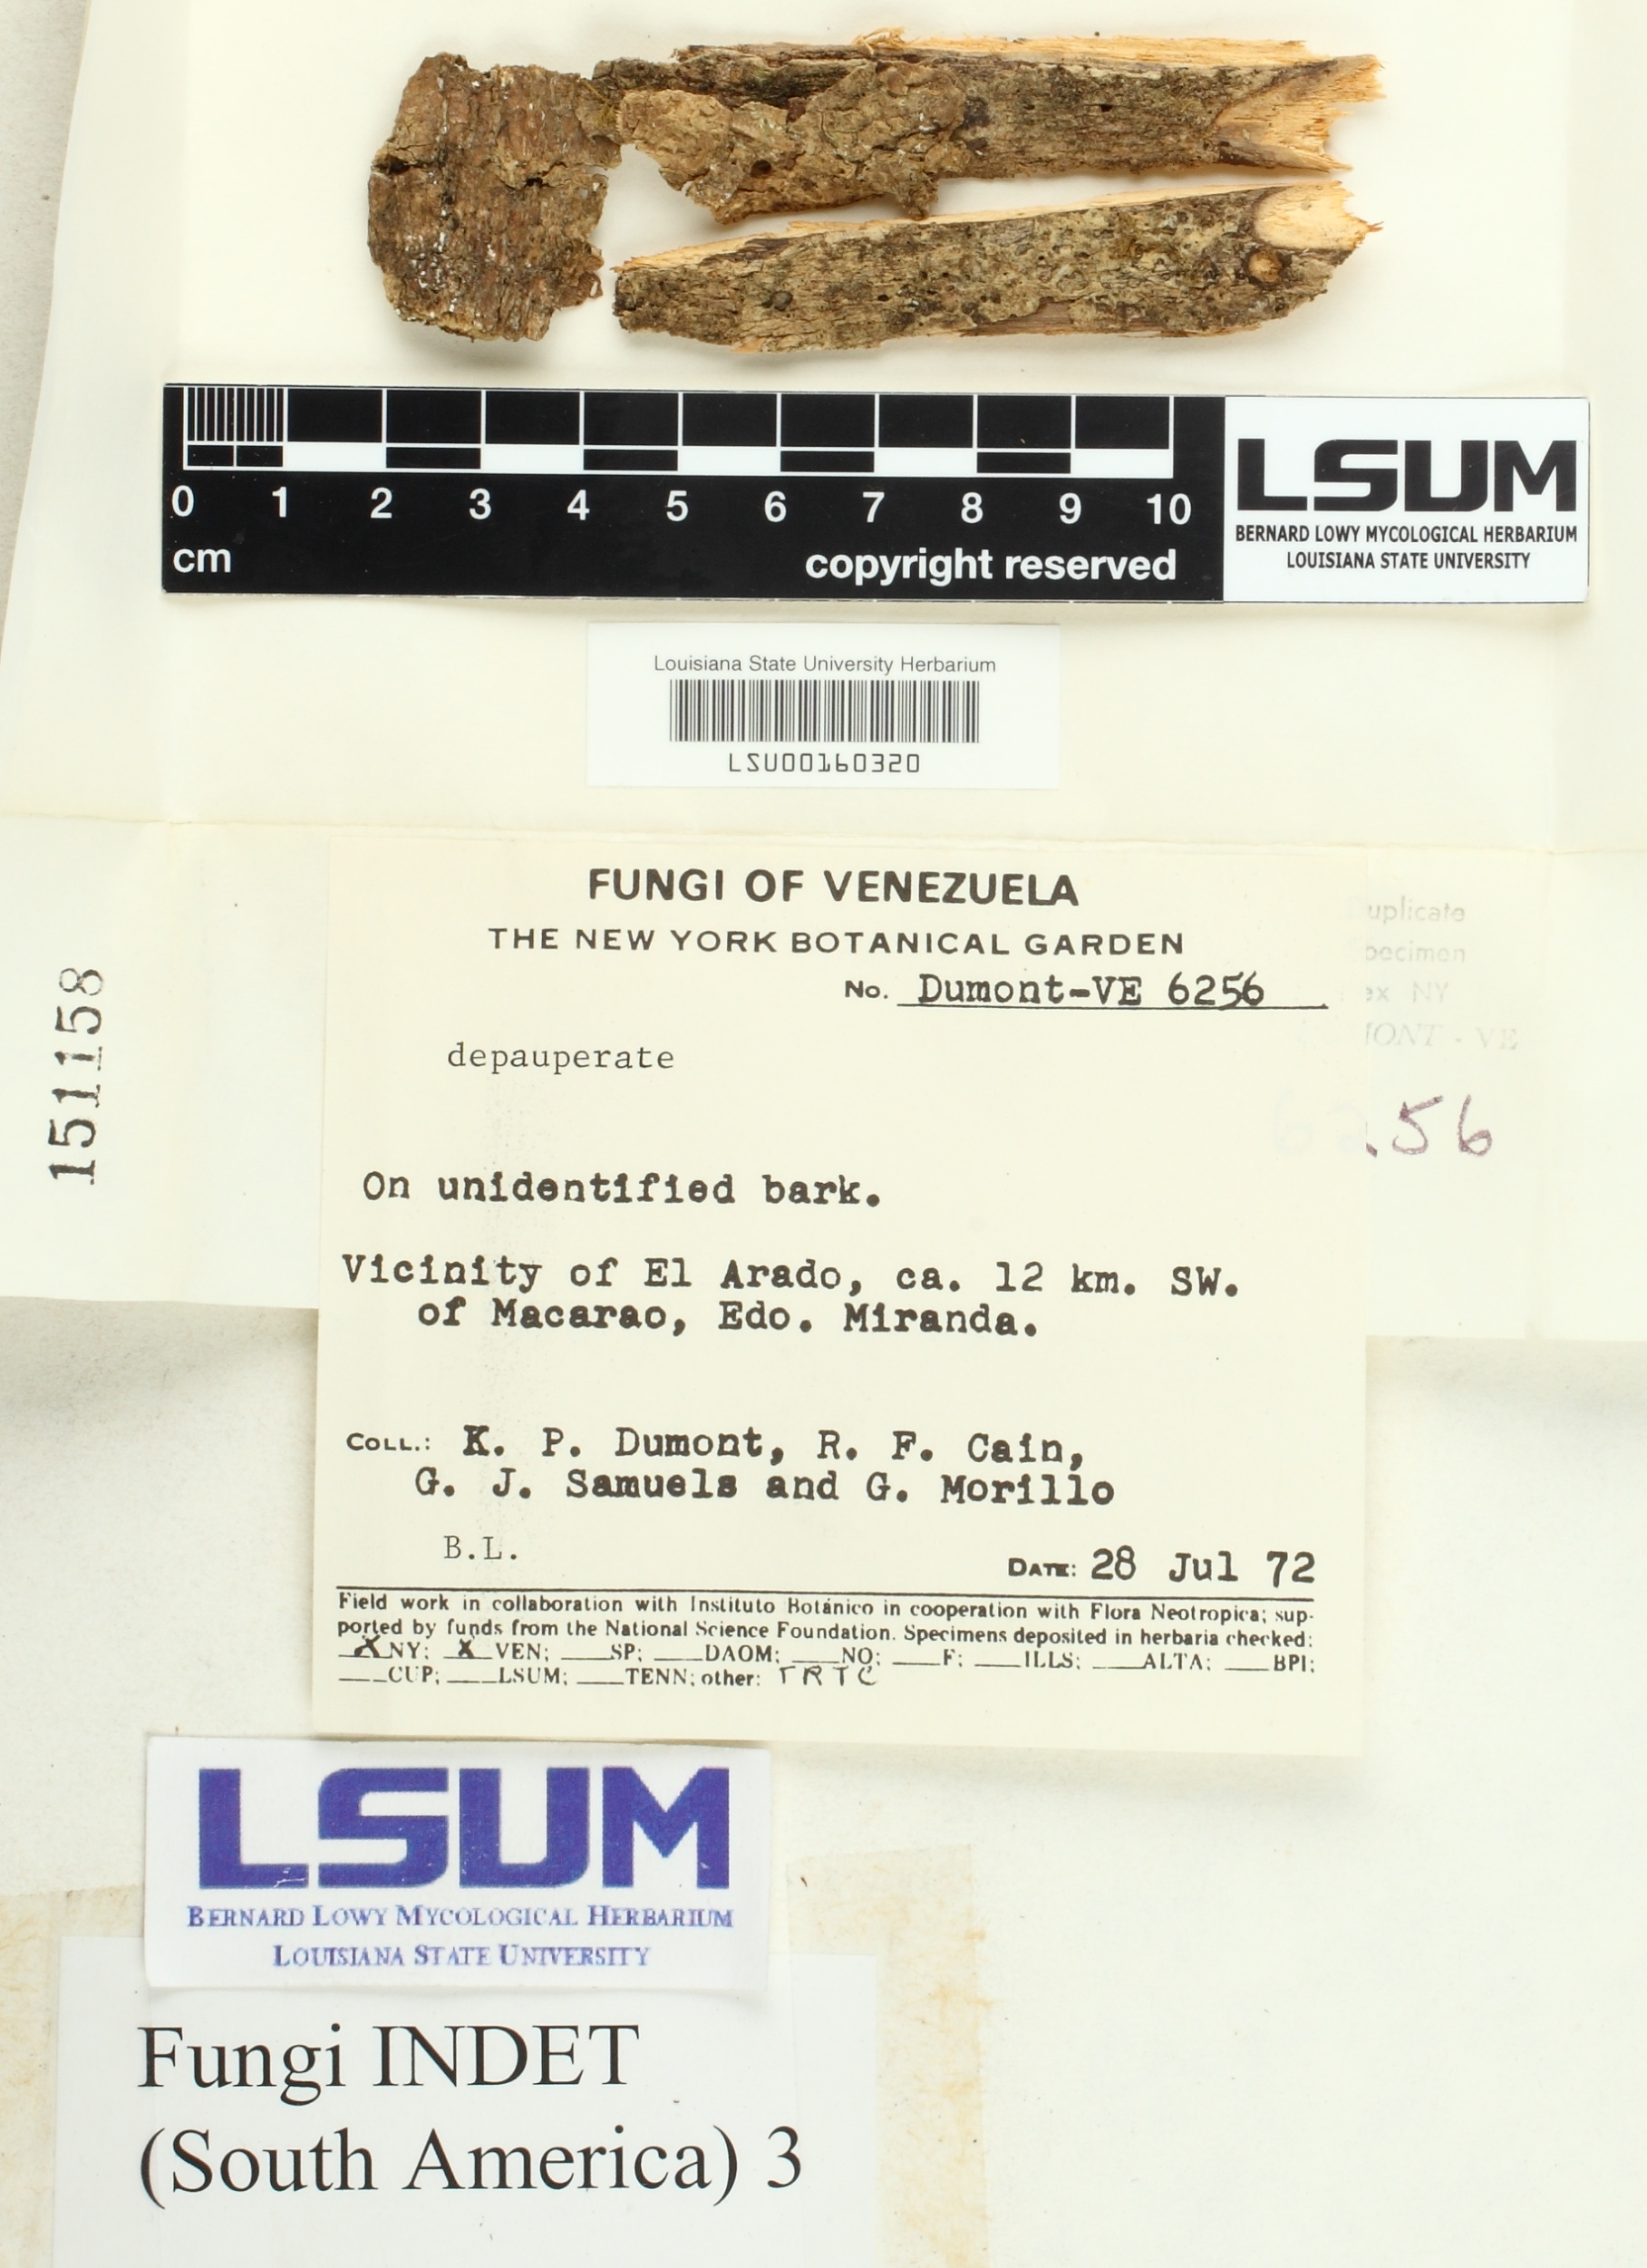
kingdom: Fungi
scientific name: Fungi
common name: Fungi
